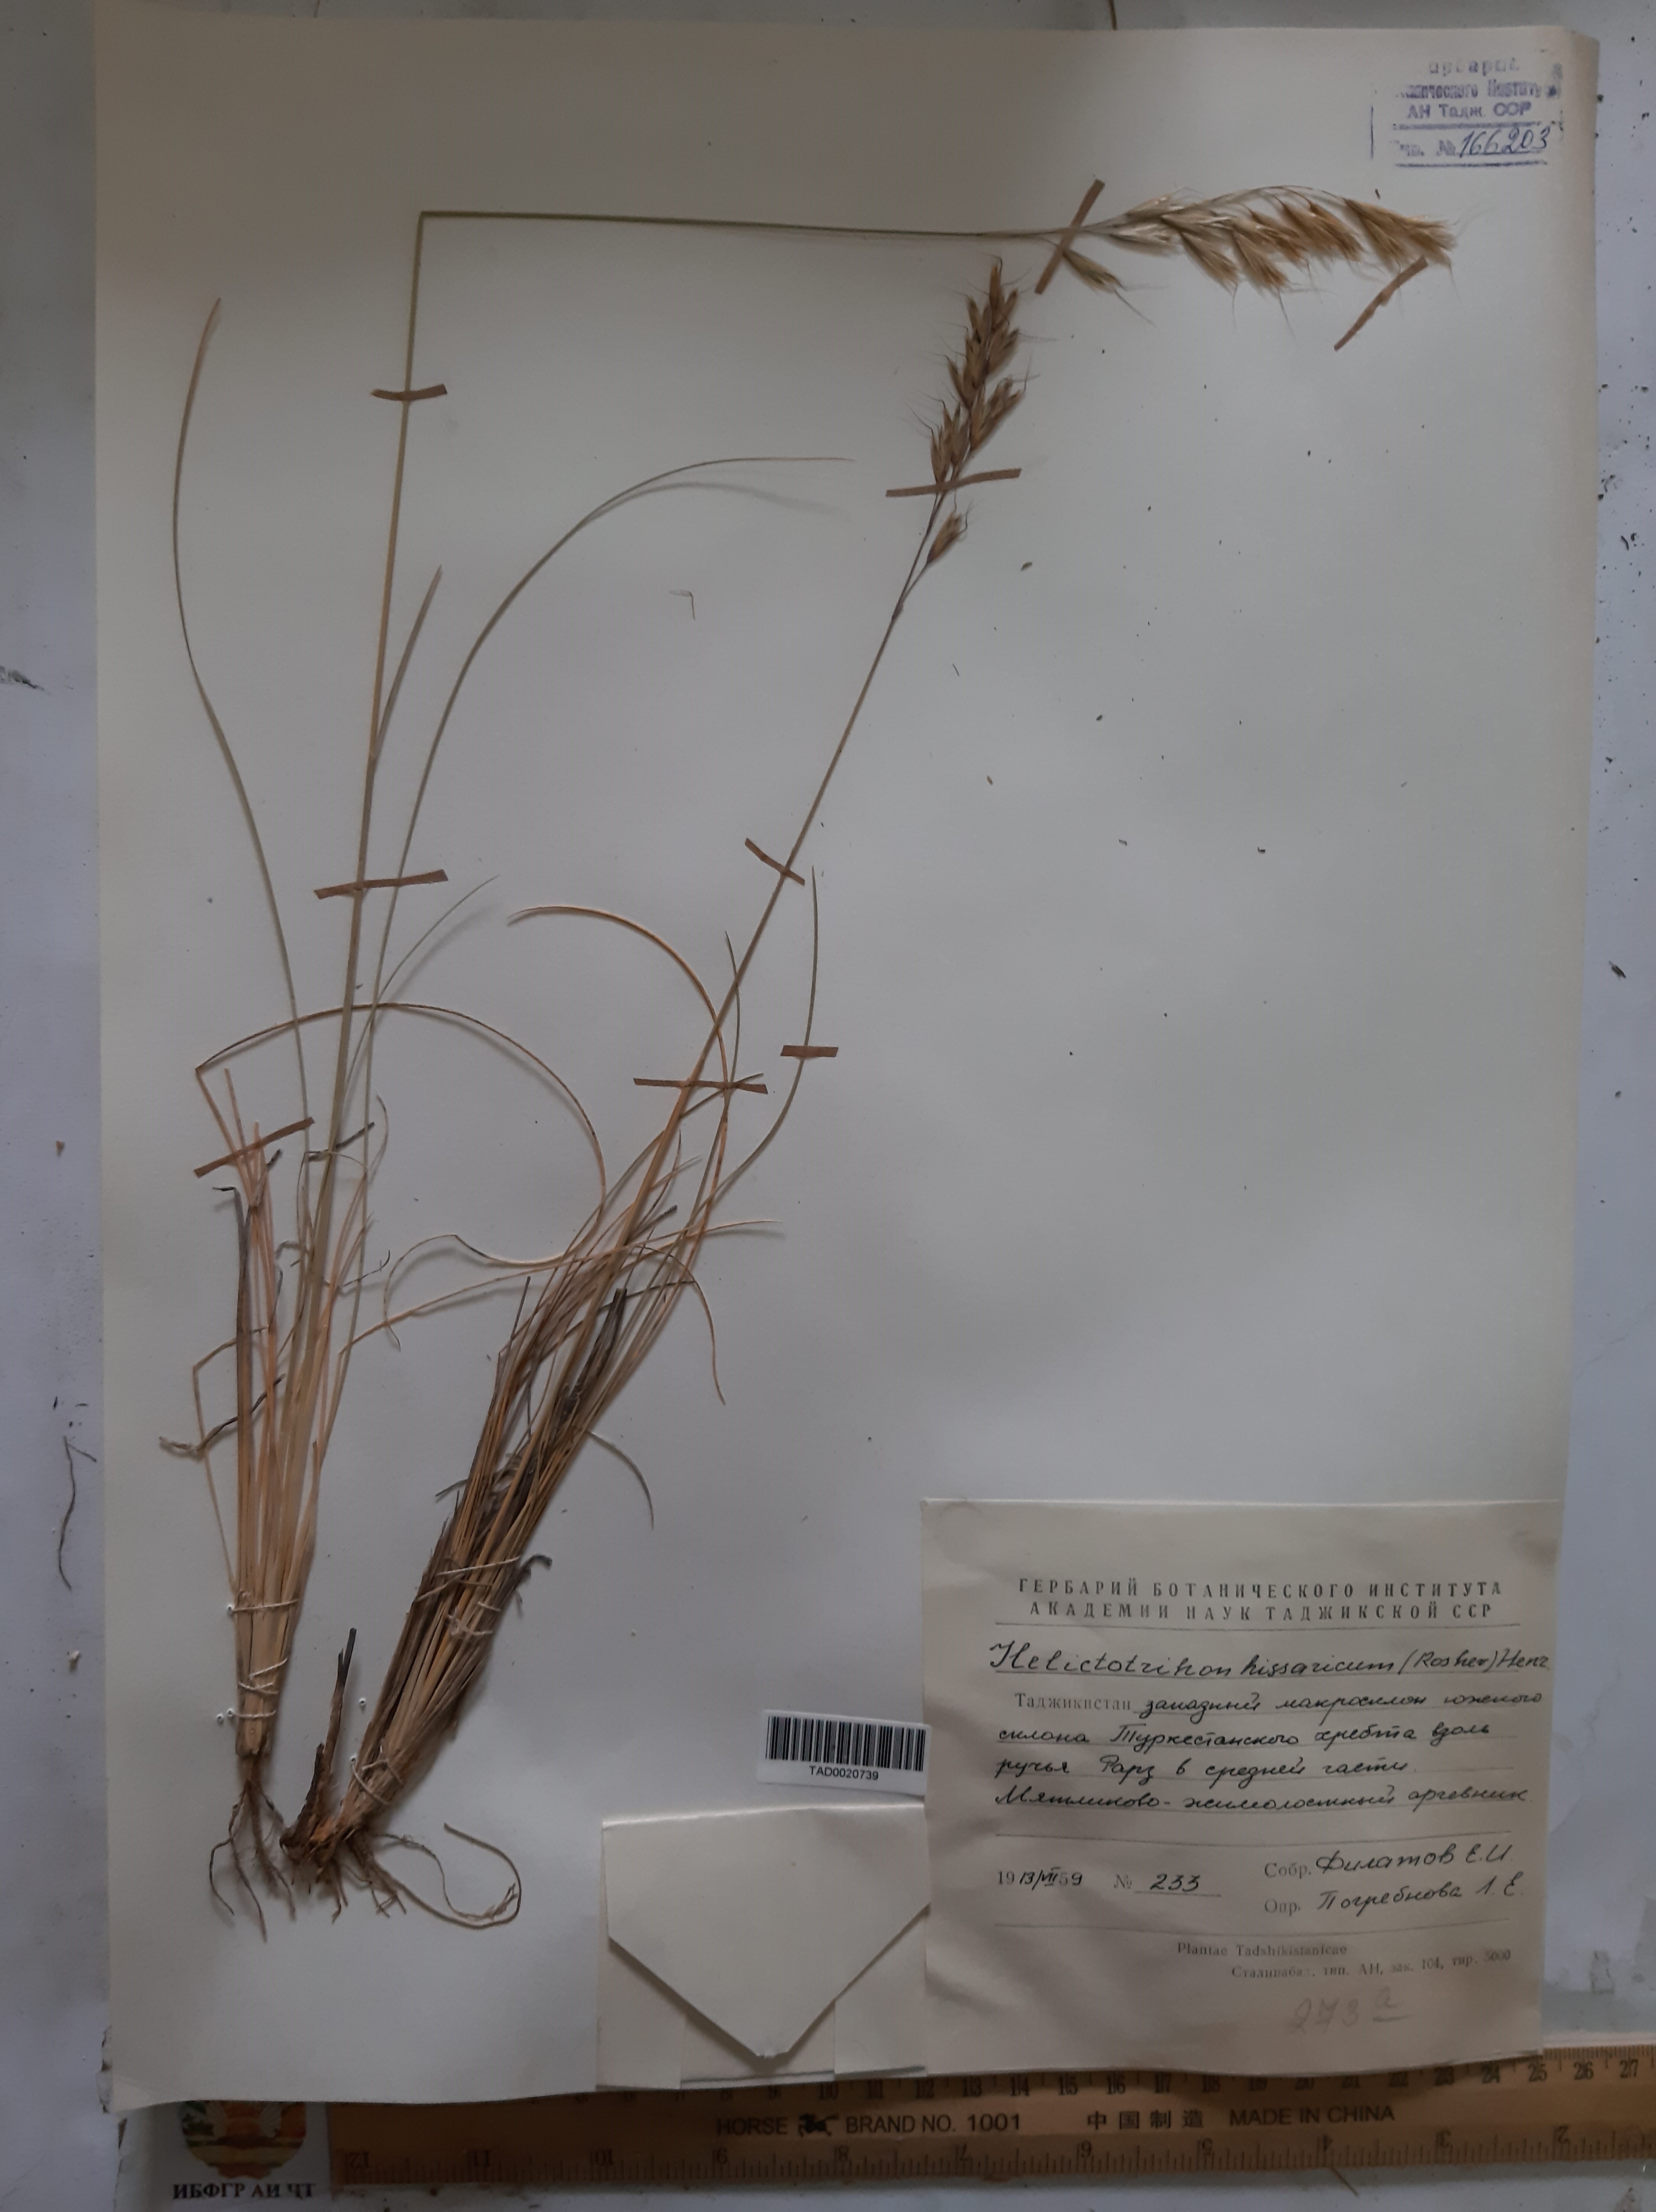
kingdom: Plantae
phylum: Tracheophyta
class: Liliopsida
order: Poales
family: Poaceae
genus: Helictotrichon
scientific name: Helictotrichon hissaricum
